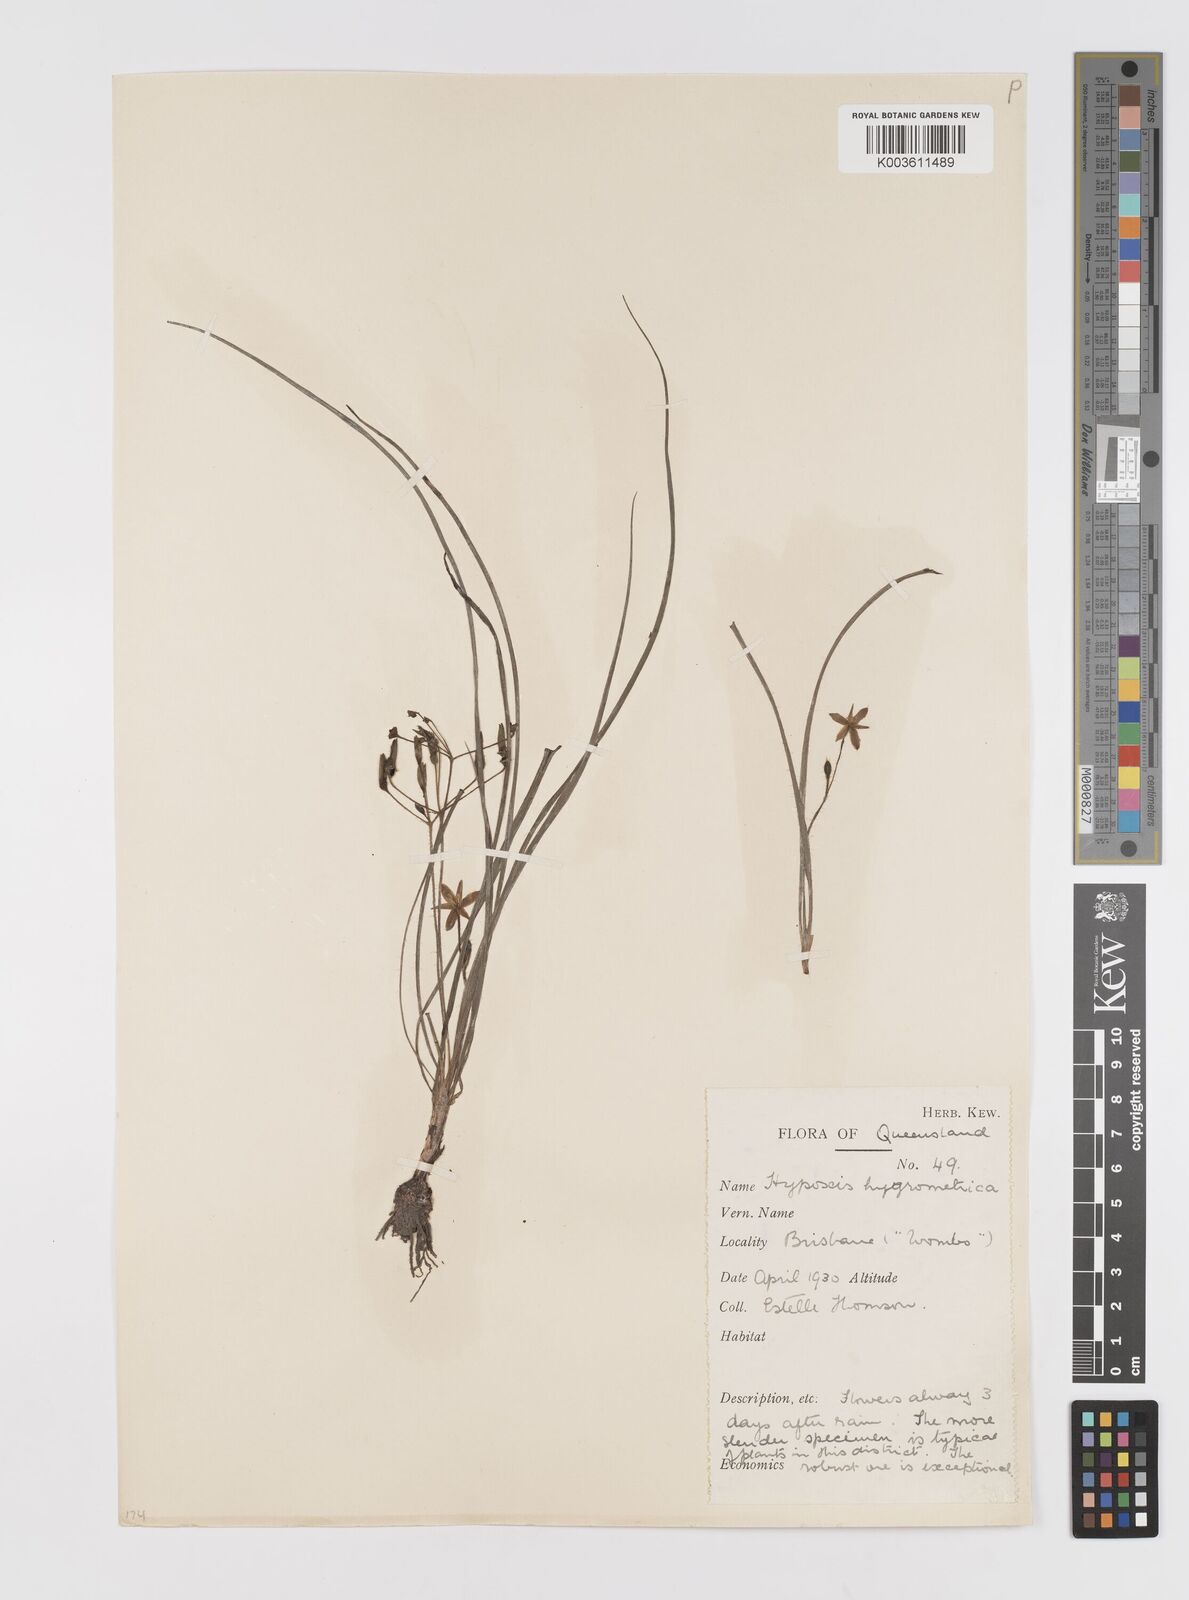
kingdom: Plantae
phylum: Tracheophyta
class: Liliopsida
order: Asparagales
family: Hypoxidaceae
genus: Hypoxis
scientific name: Hypoxis hygrometrica
